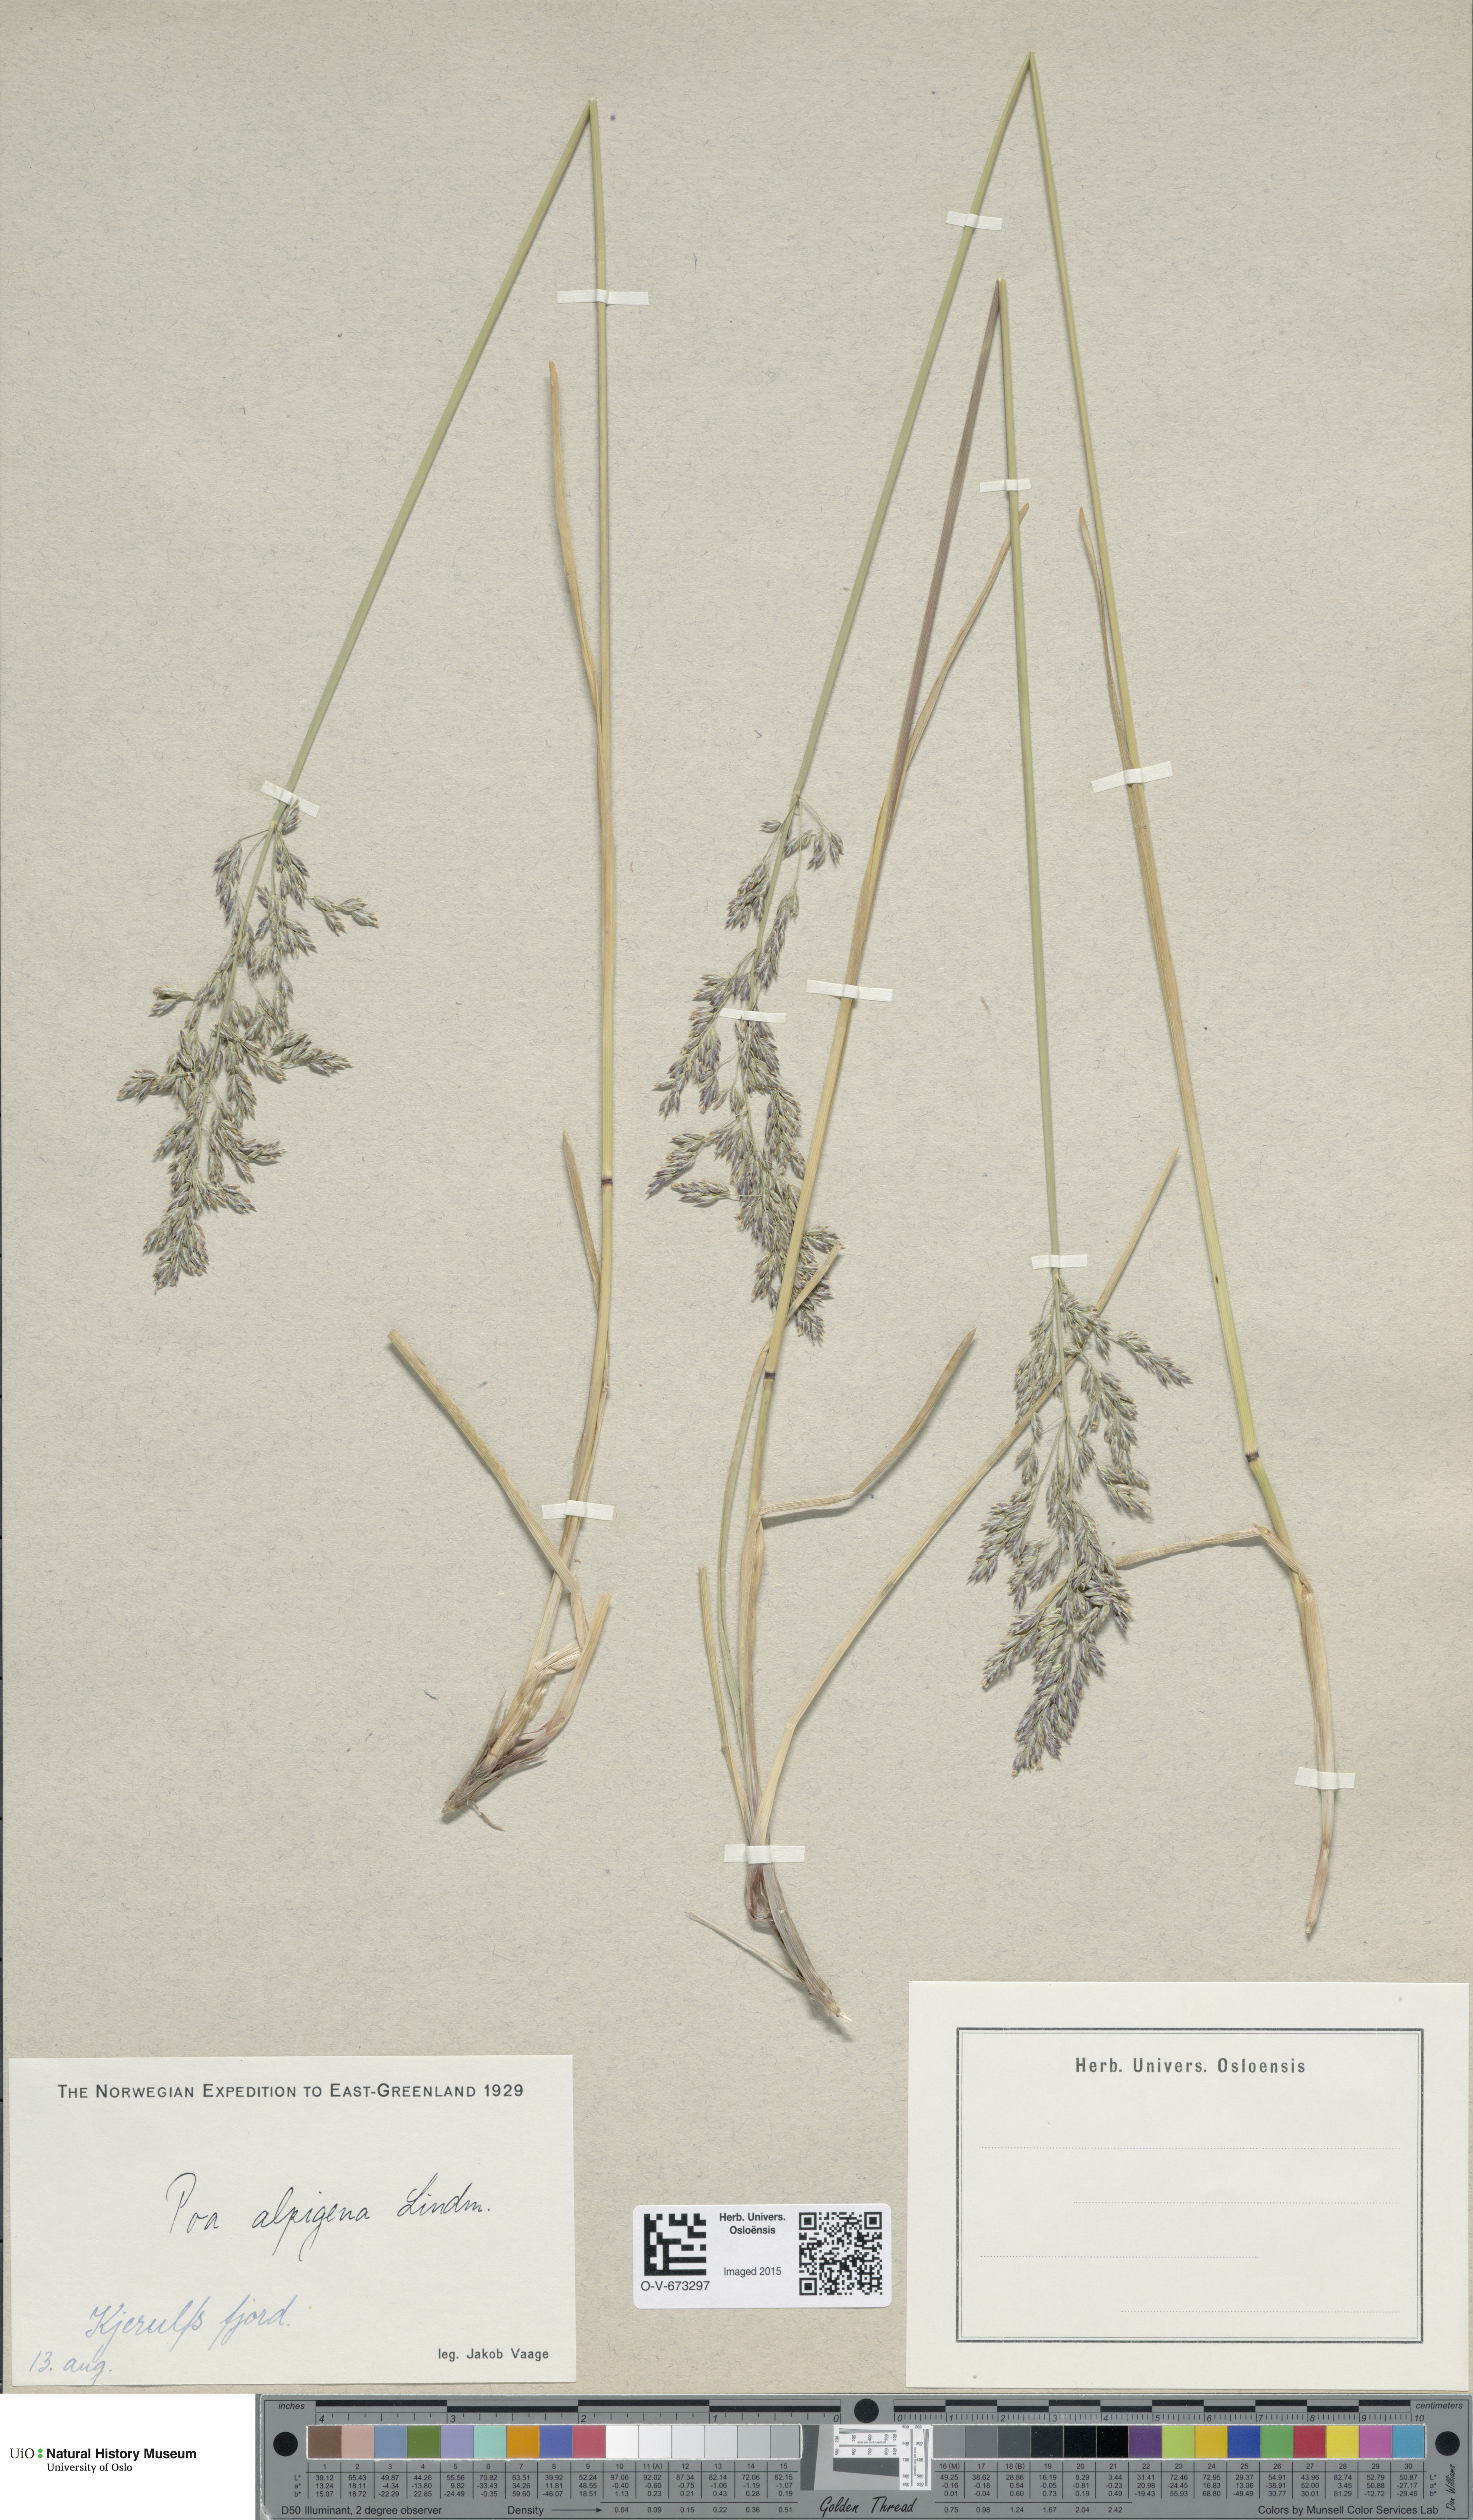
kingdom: Plantae
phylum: Tracheophyta
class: Liliopsida
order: Poales
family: Poaceae
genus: Poa
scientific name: Poa alpigena
